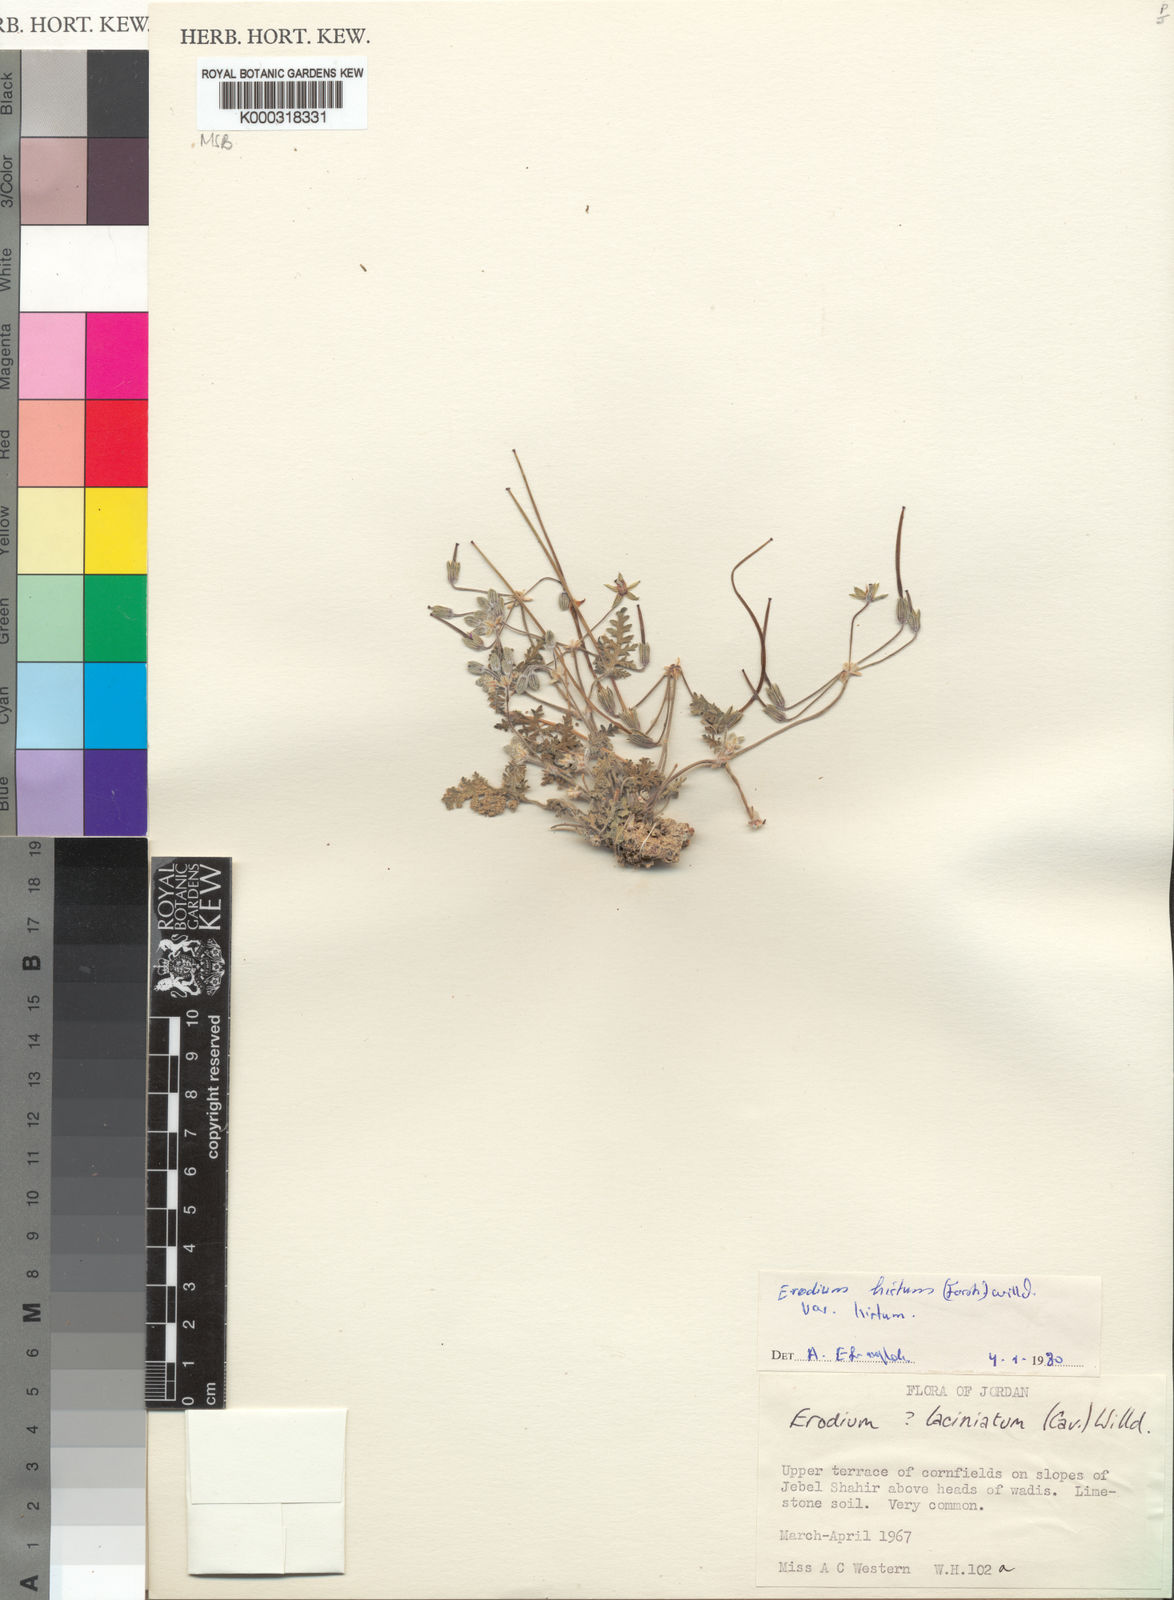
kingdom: Plantae
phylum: Tracheophyta
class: Magnoliopsida
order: Geraniales
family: Geraniaceae
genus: Erodium
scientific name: Erodium crassifolium
